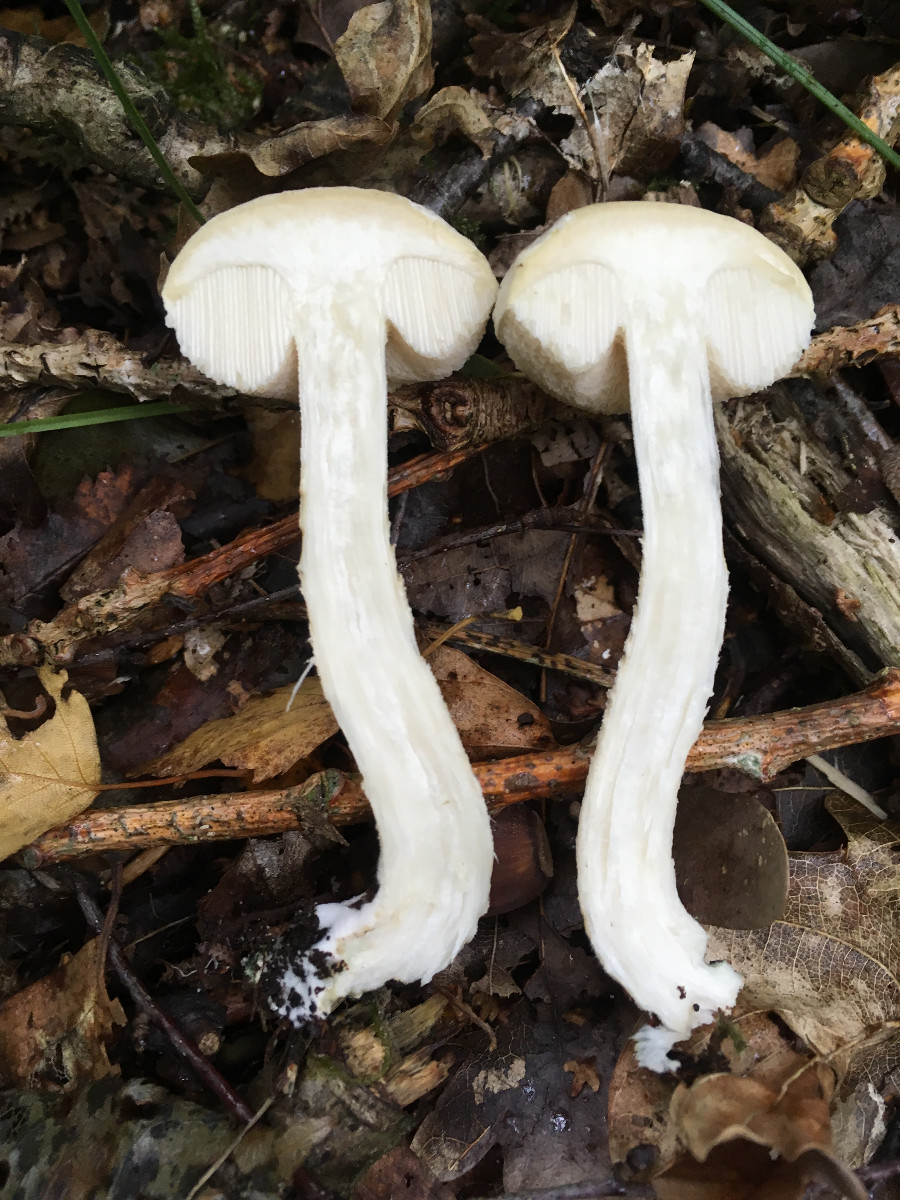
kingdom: Fungi
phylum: Basidiomycota
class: Agaricomycetes
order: Boletales
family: Boletaceae
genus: Leccinum
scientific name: Leccinum scabrum
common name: hvid skælrørhat
